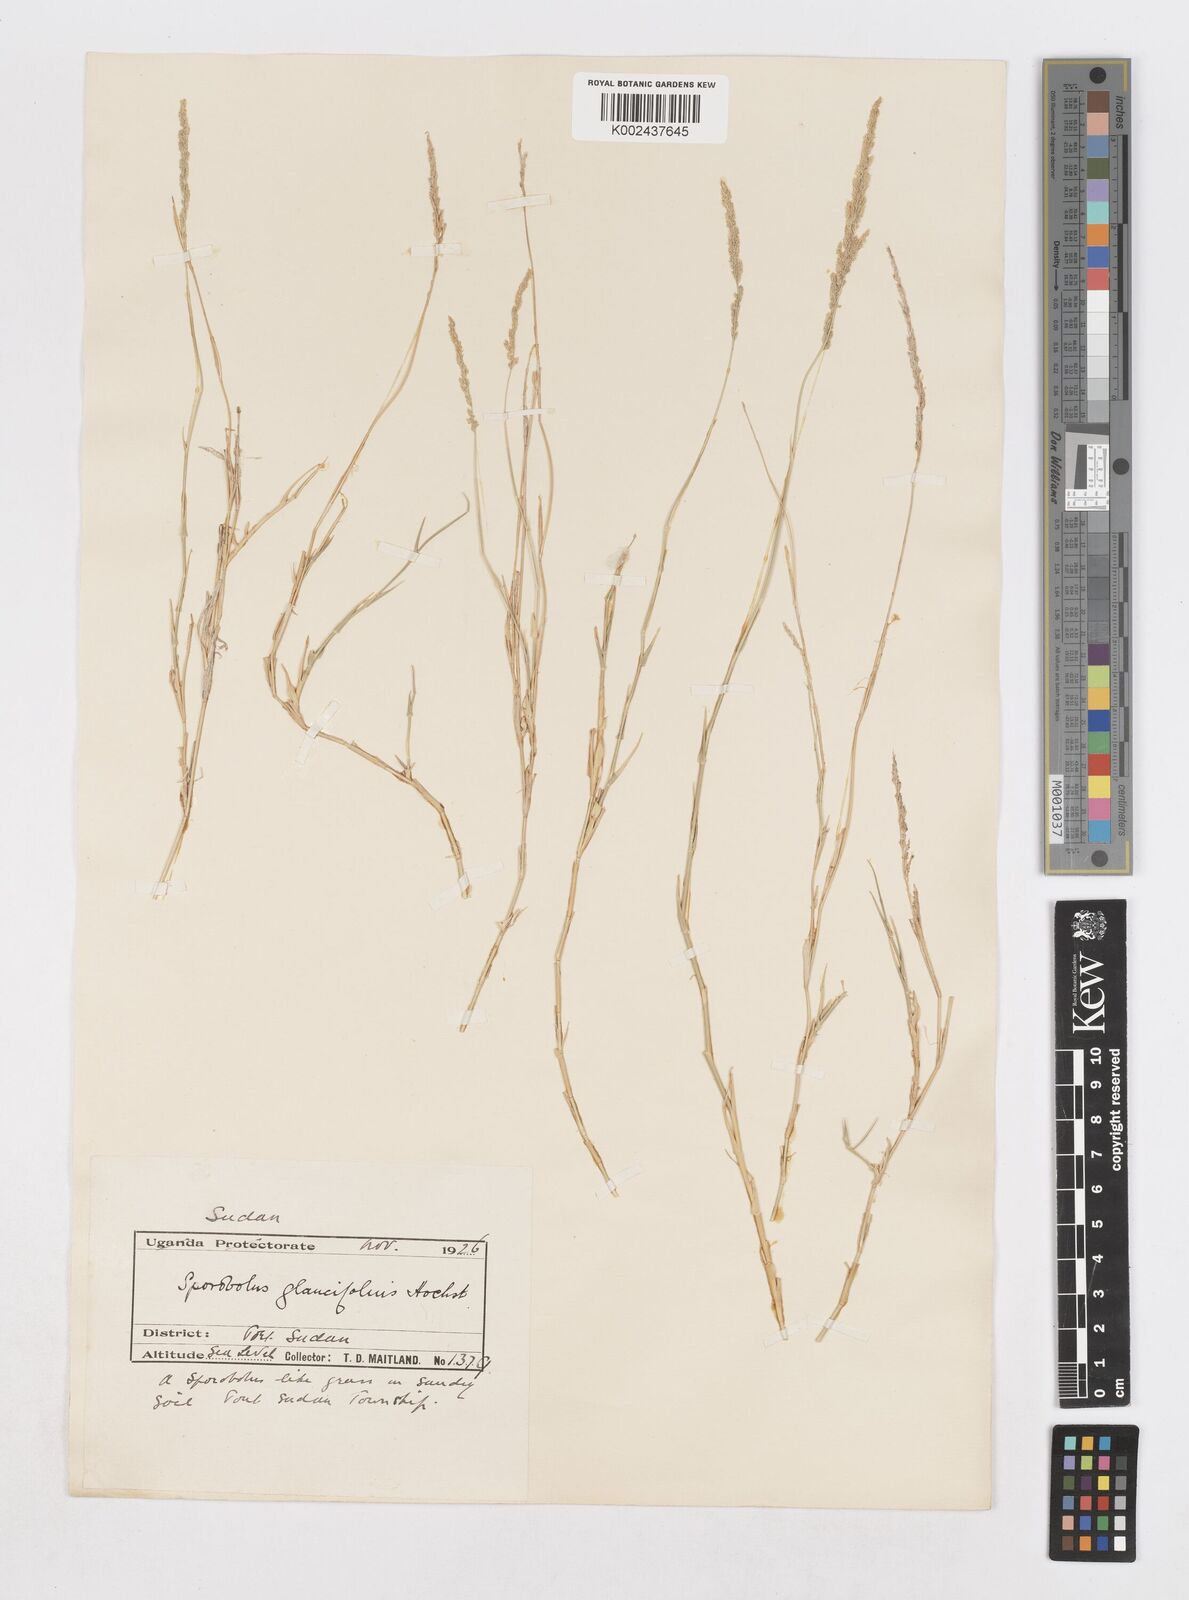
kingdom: Plantae
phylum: Tracheophyta
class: Liliopsida
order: Poales
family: Poaceae
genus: Sporobolus
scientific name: Sporobolus helvolus
